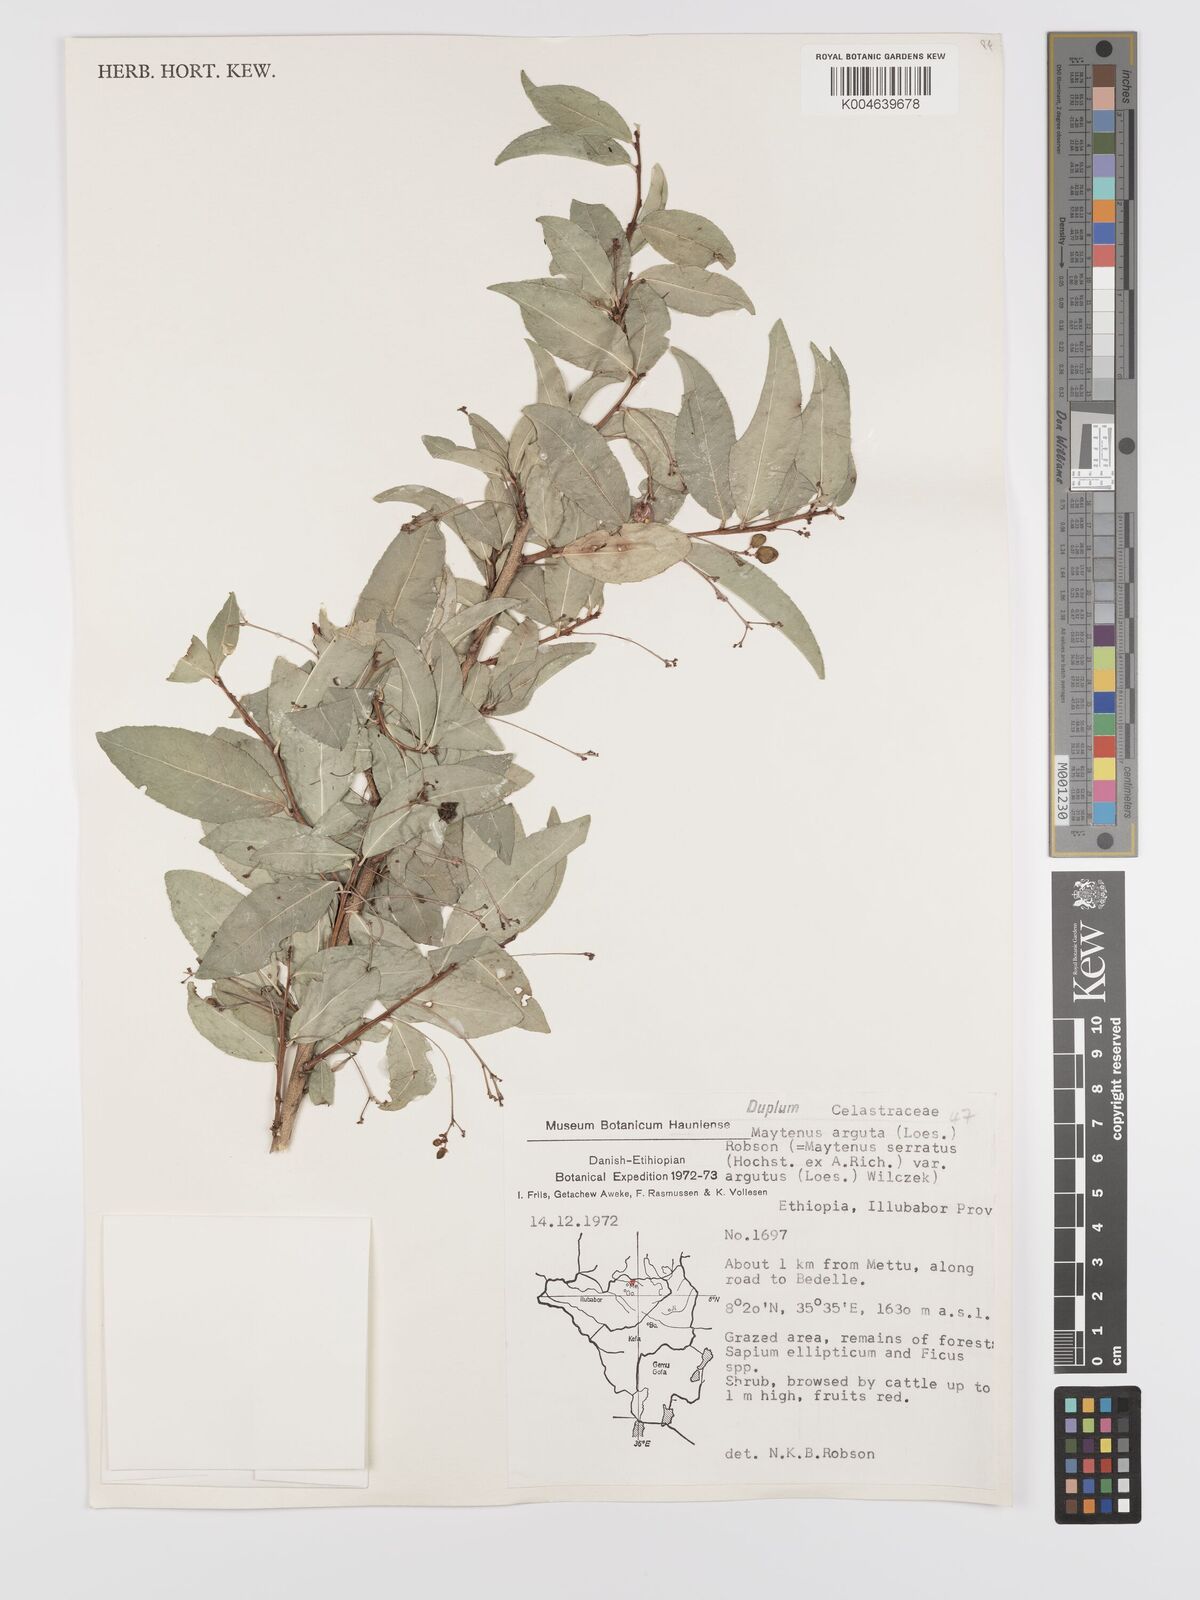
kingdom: Plantae
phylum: Tracheophyta
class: Magnoliopsida
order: Celastrales
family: Celastraceae
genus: Gymnosporia
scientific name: Gymnosporia gracilipes
